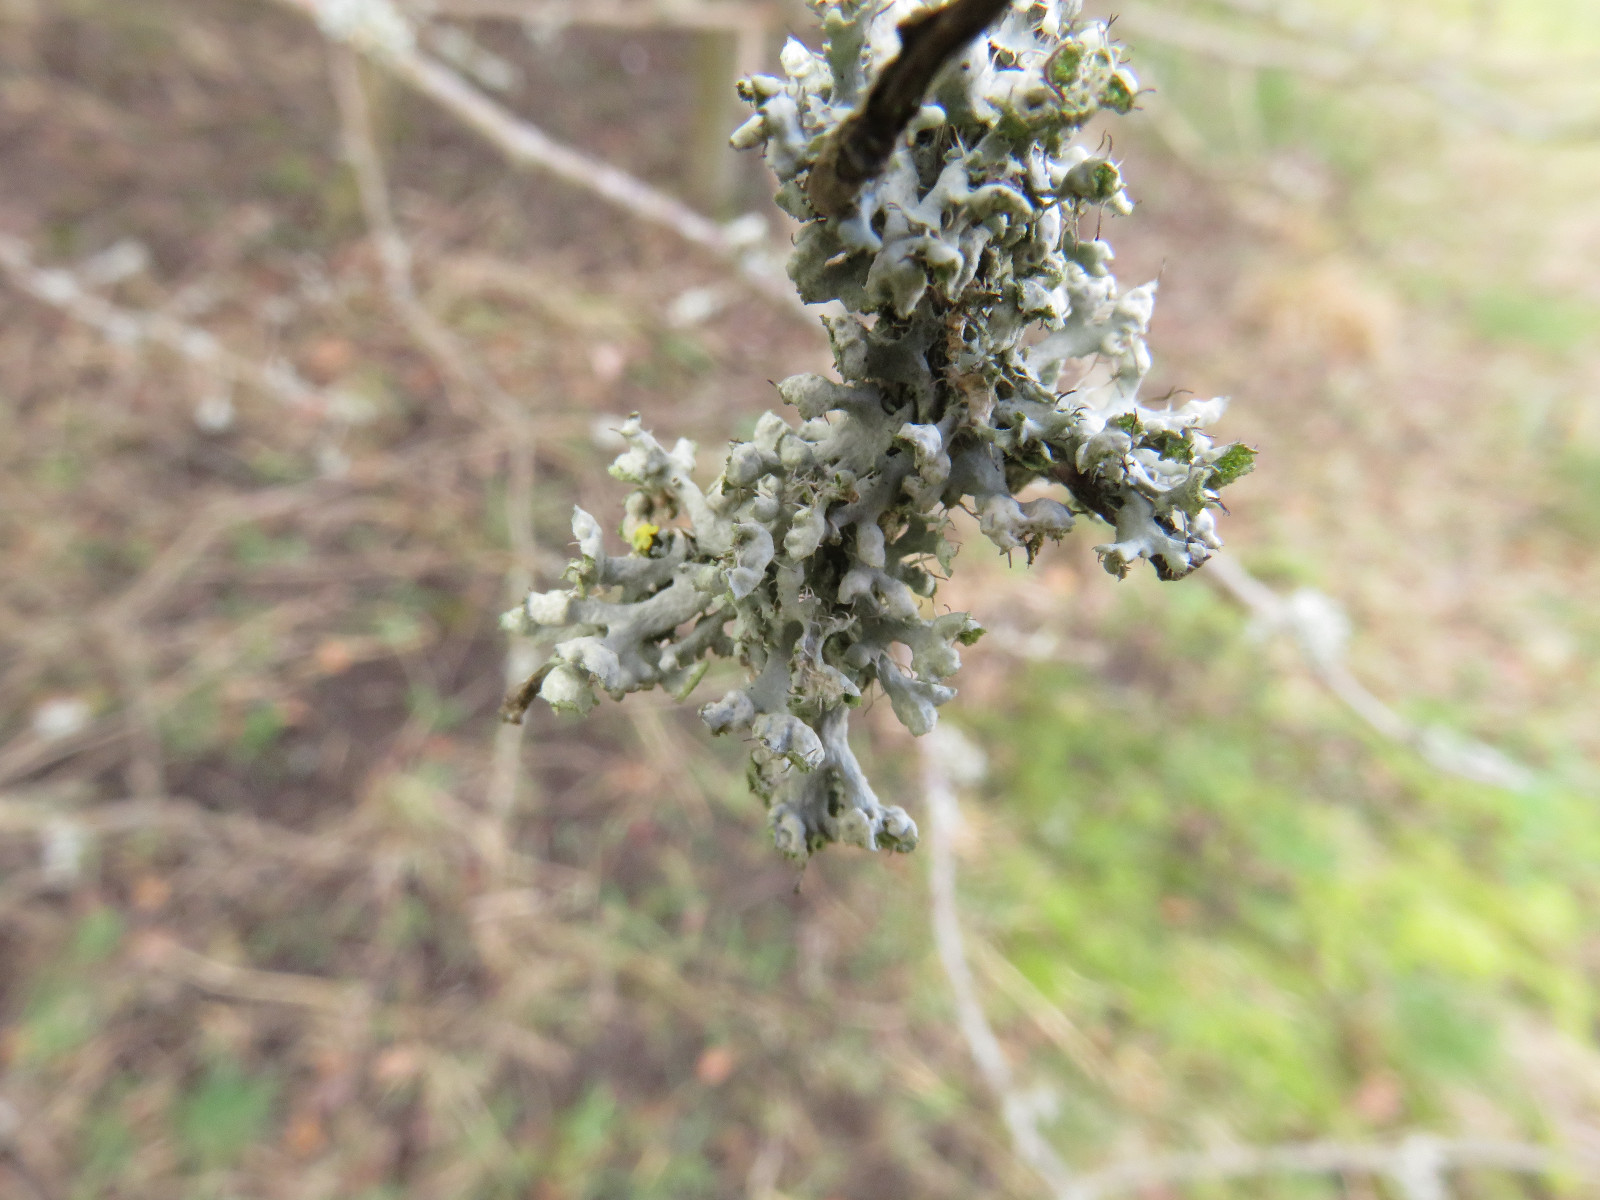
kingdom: Fungi
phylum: Ascomycota
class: Lecanoromycetes
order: Caliciales
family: Physciaceae
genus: Physcia
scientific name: Physcia adscendens
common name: hætte-rosetlav
